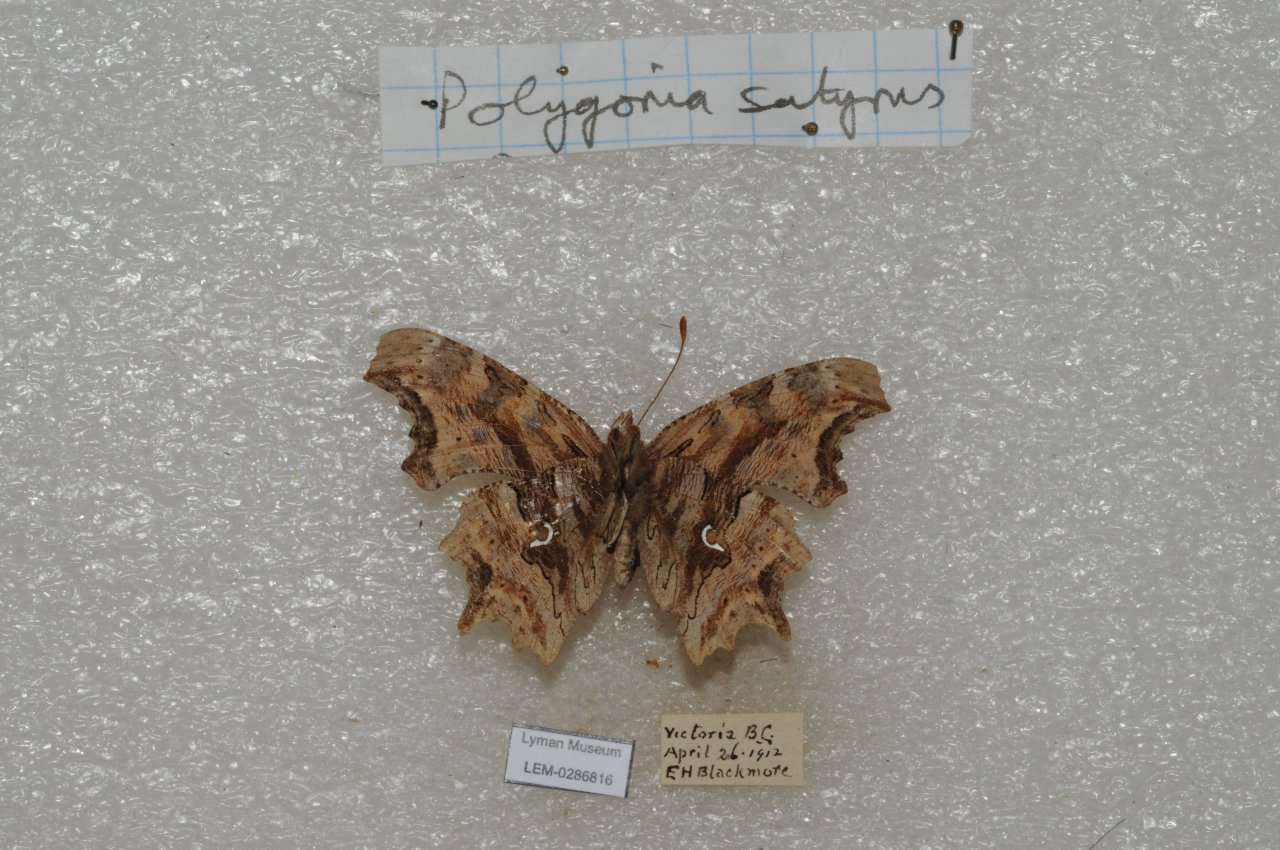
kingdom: Animalia
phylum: Arthropoda
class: Insecta
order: Lepidoptera
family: Nymphalidae
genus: Polygonia
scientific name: Polygonia satyrus
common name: Satyr Comma
